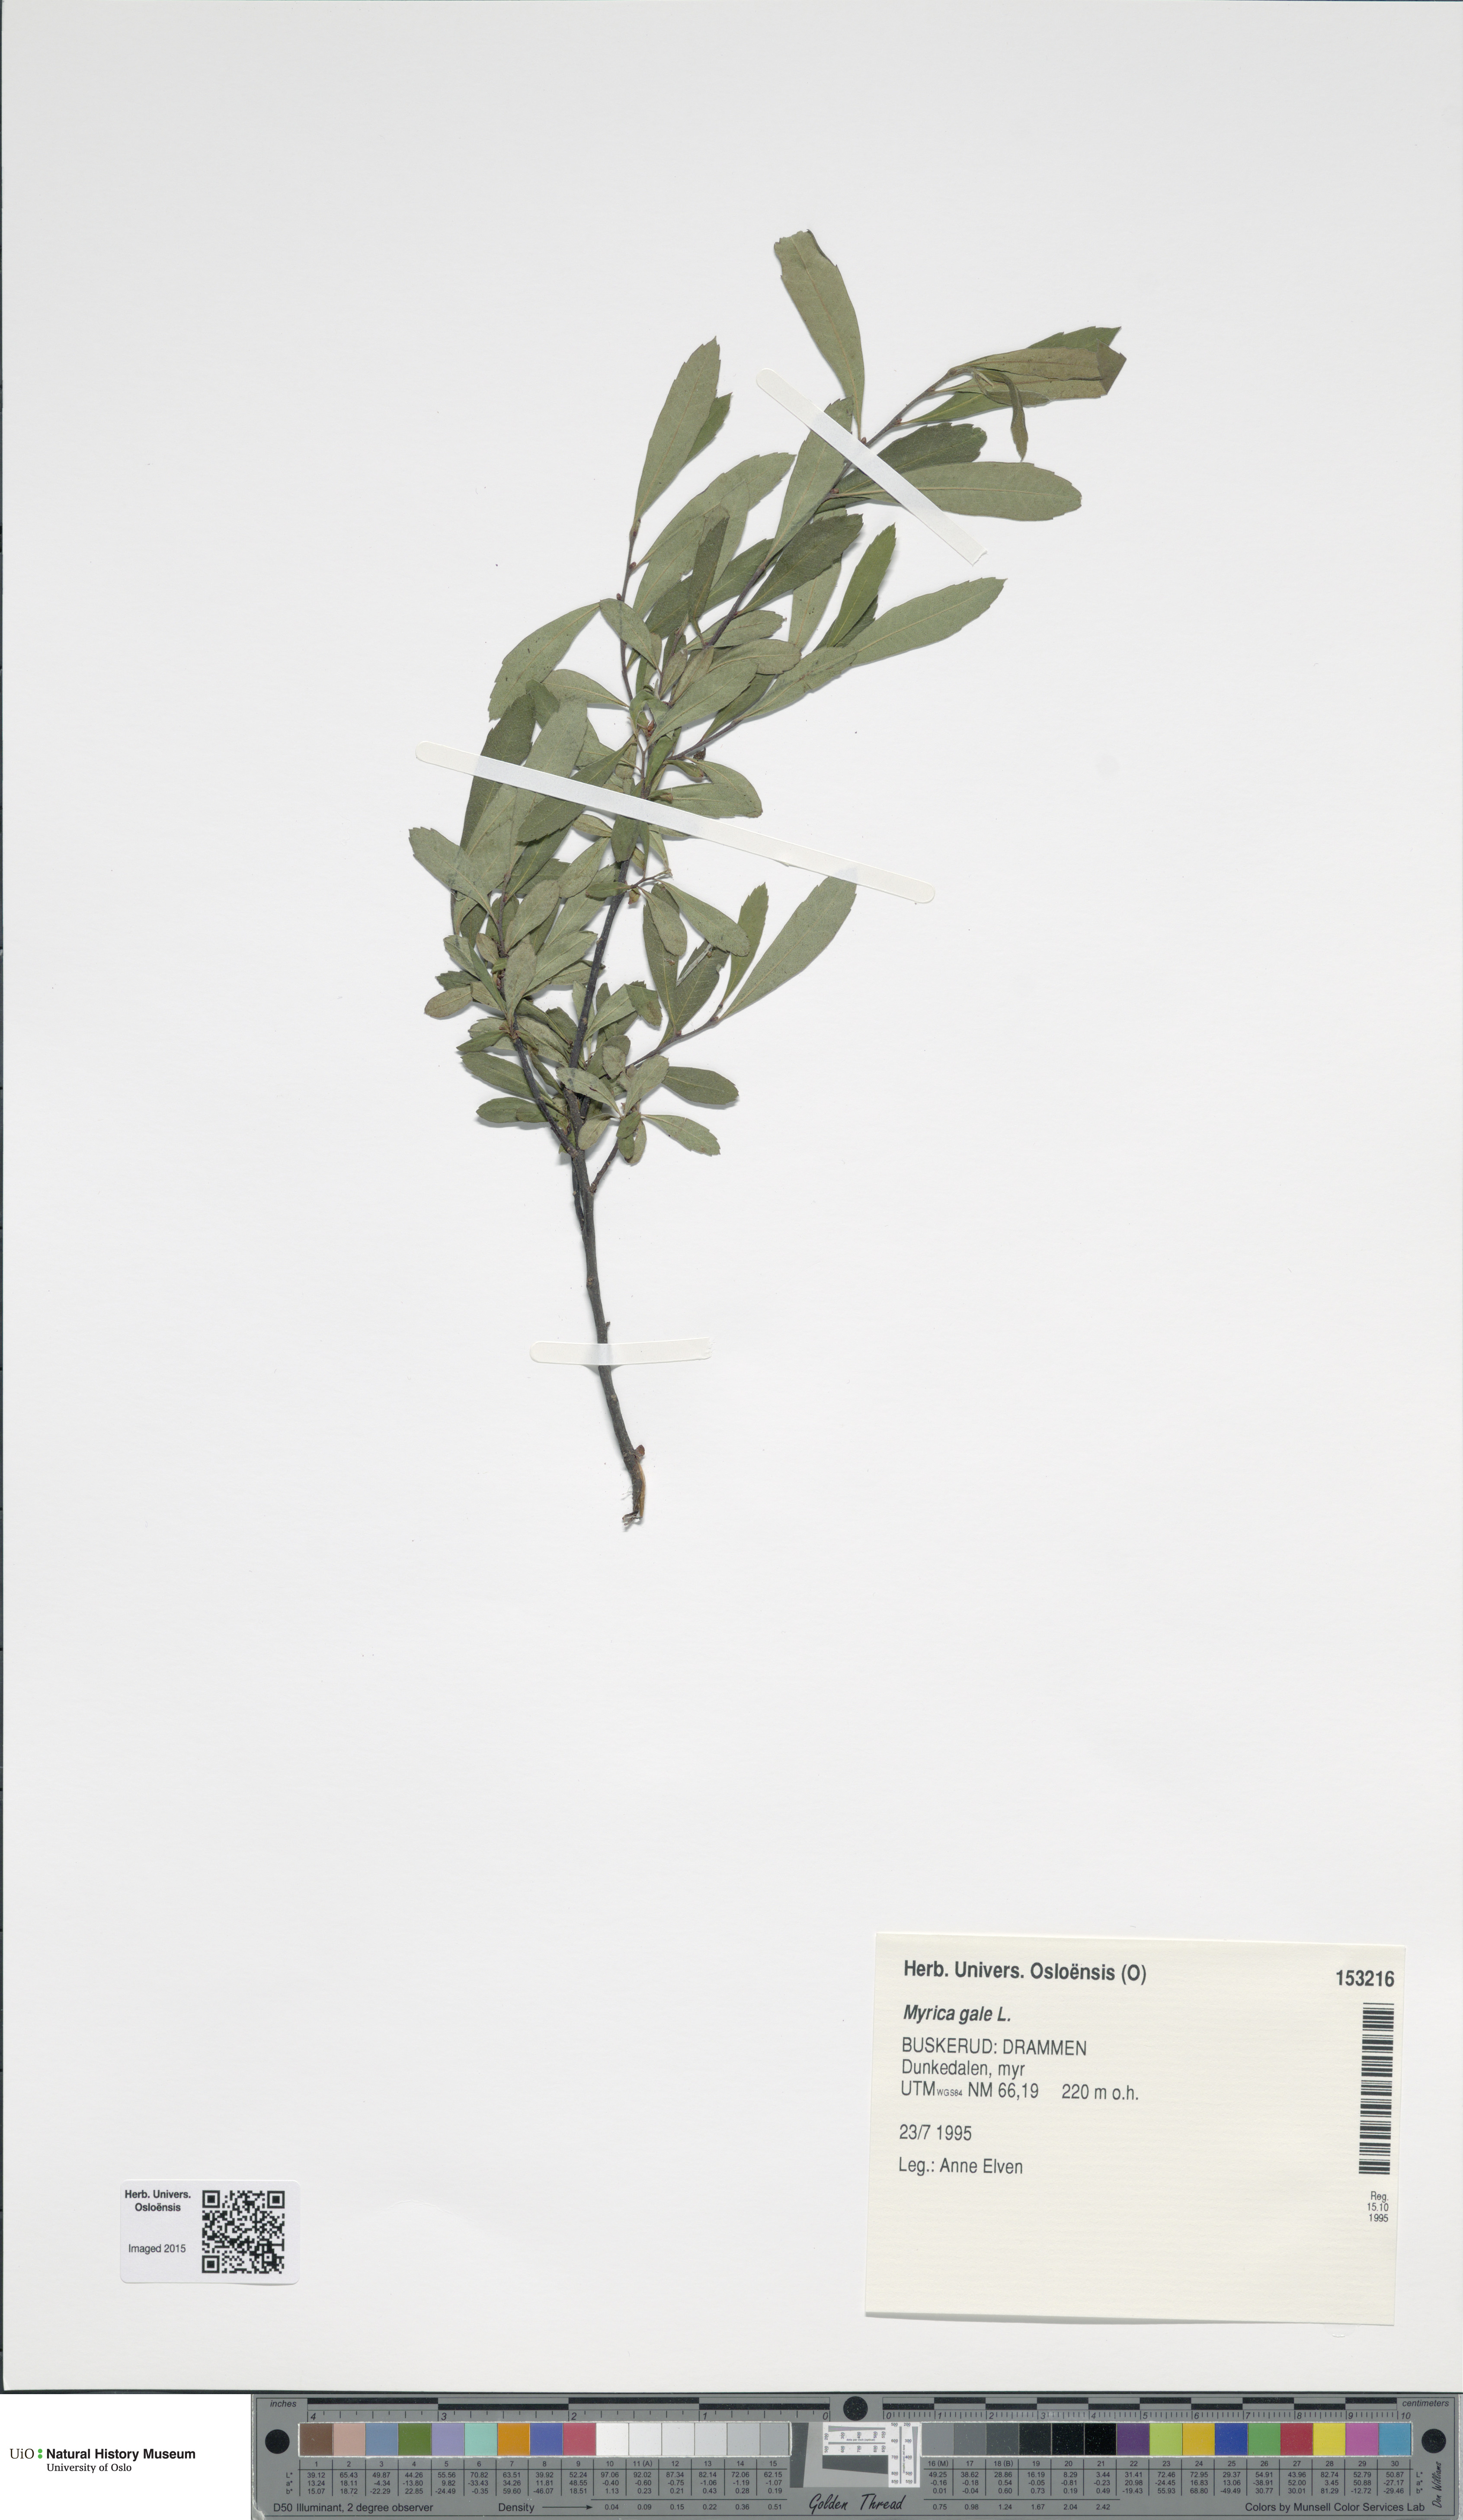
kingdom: Plantae
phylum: Tracheophyta
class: Magnoliopsida
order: Fagales
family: Myricaceae
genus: Myrica
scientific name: Myrica gale
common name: Sweet gale
